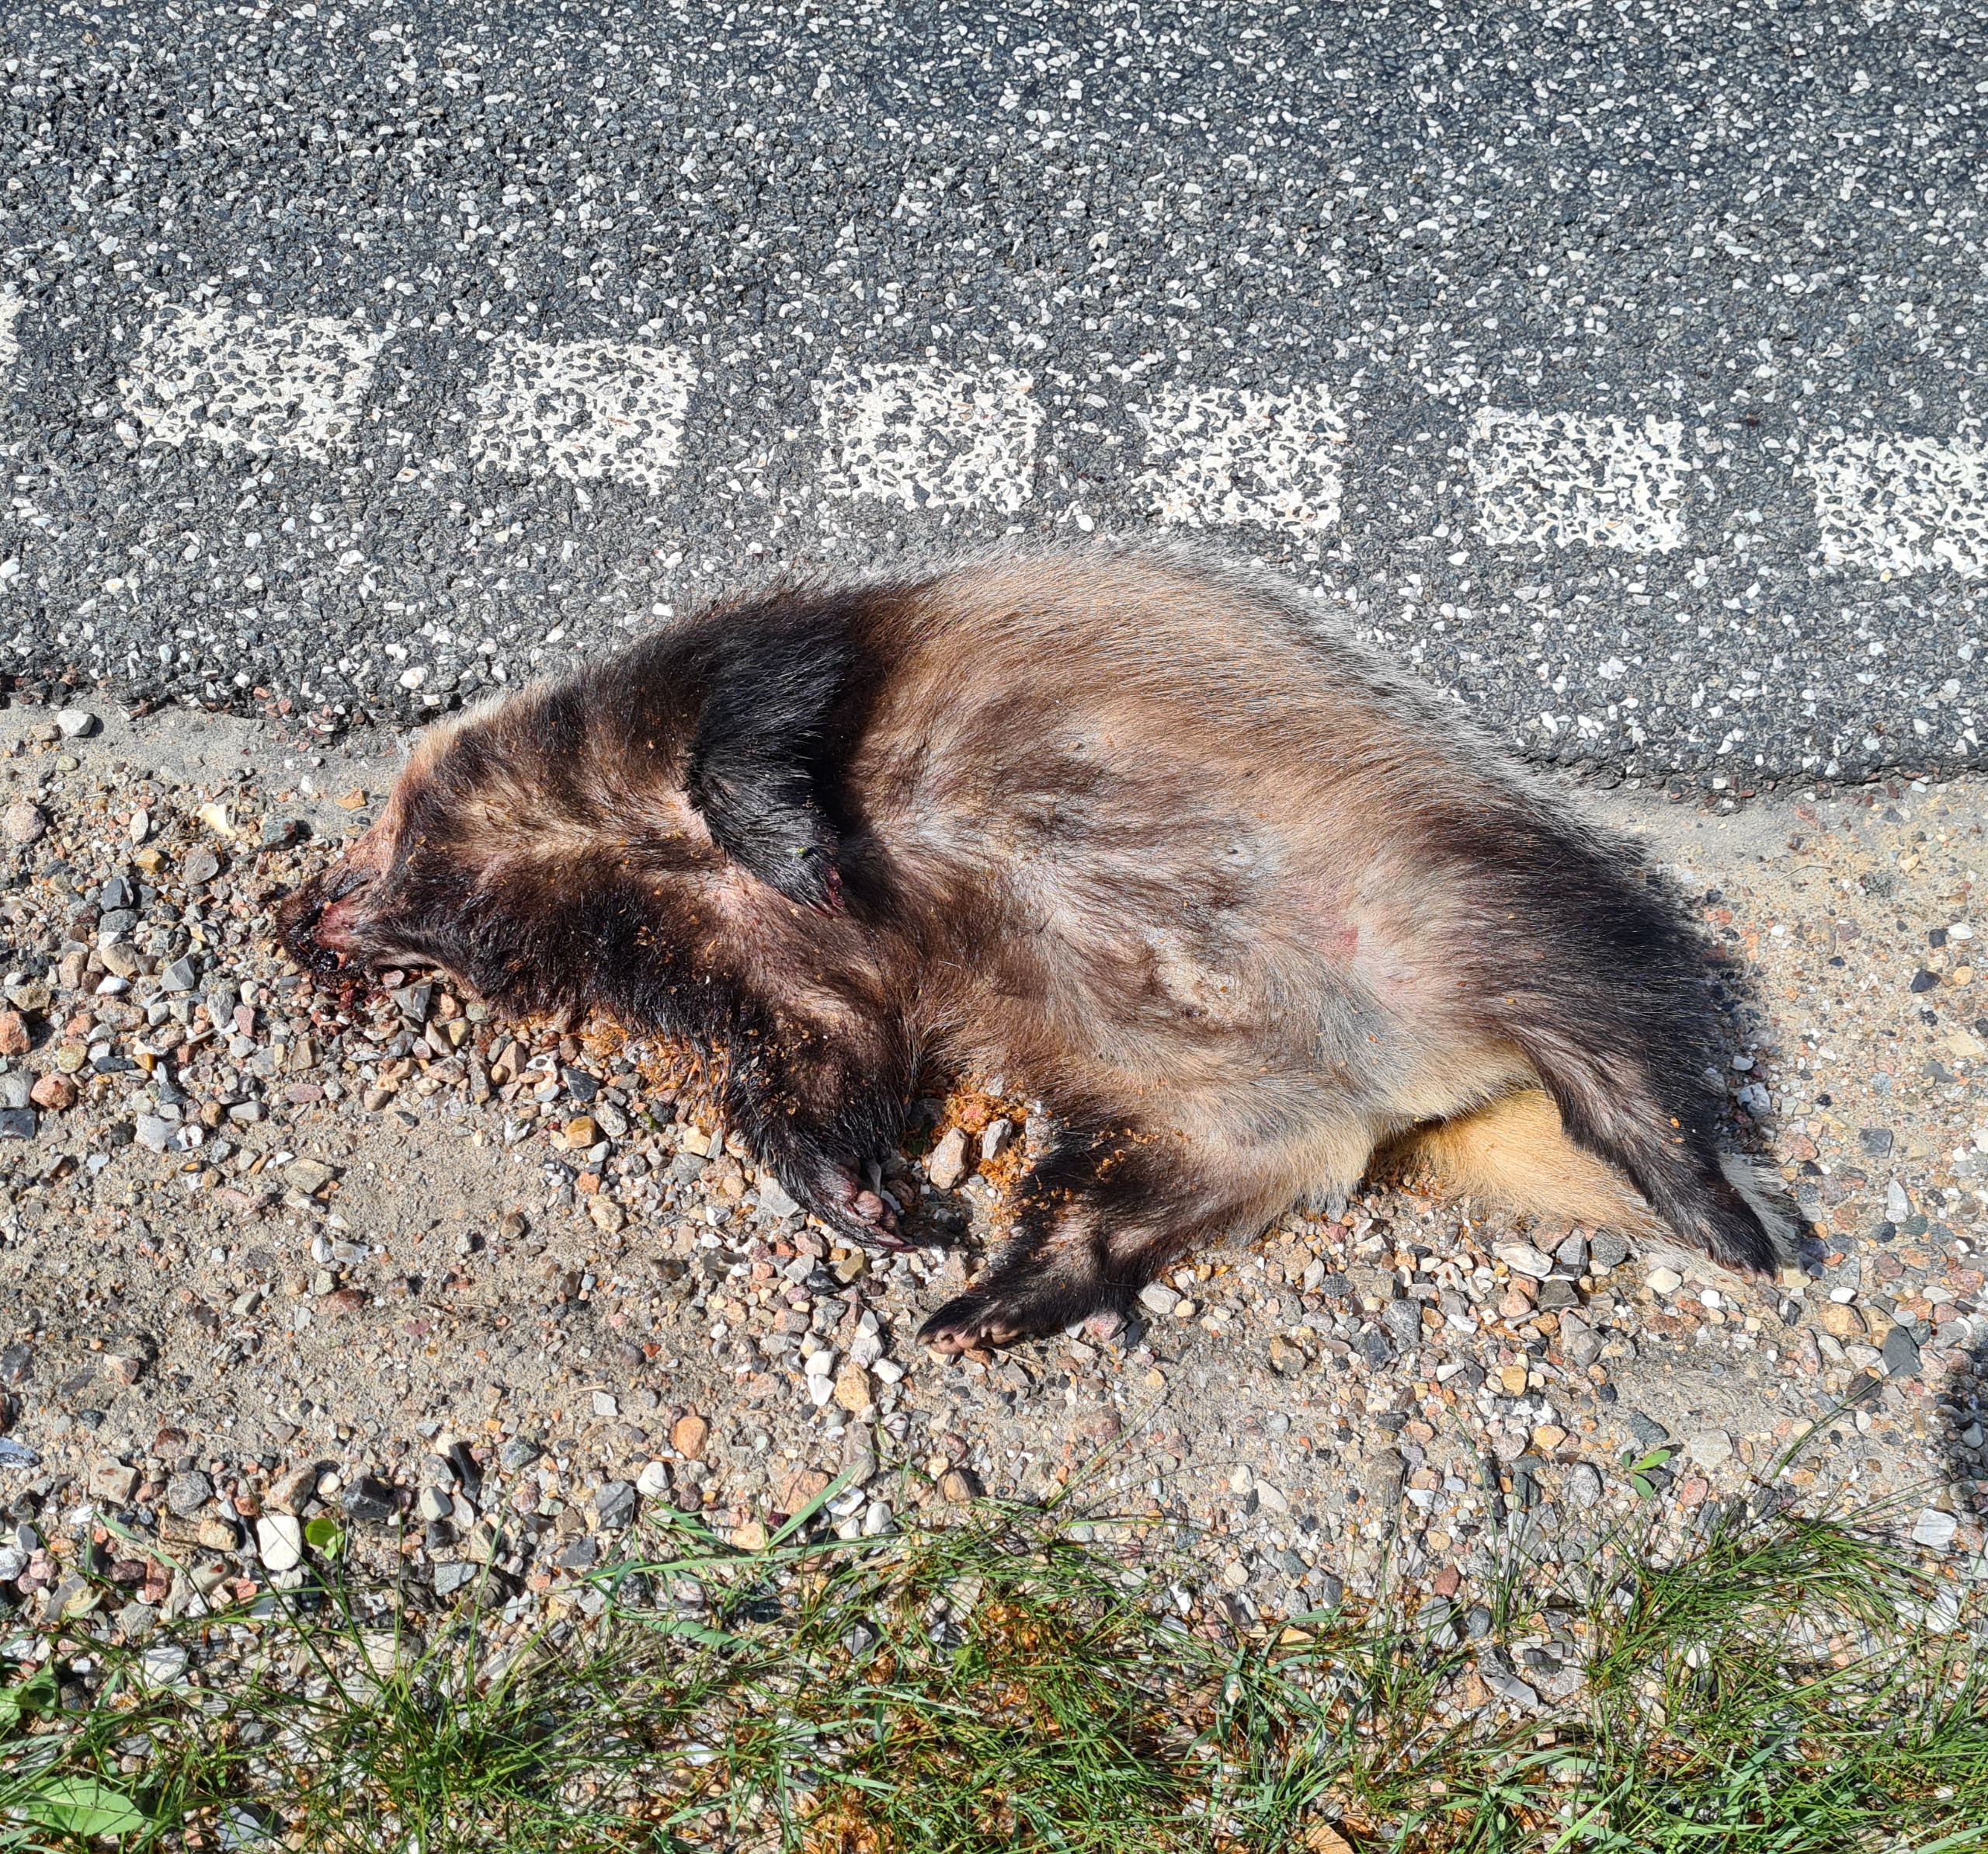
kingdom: Animalia
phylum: Chordata
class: Mammalia
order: Carnivora
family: Mustelidae
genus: Meles
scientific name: Meles meles
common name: Grævling
